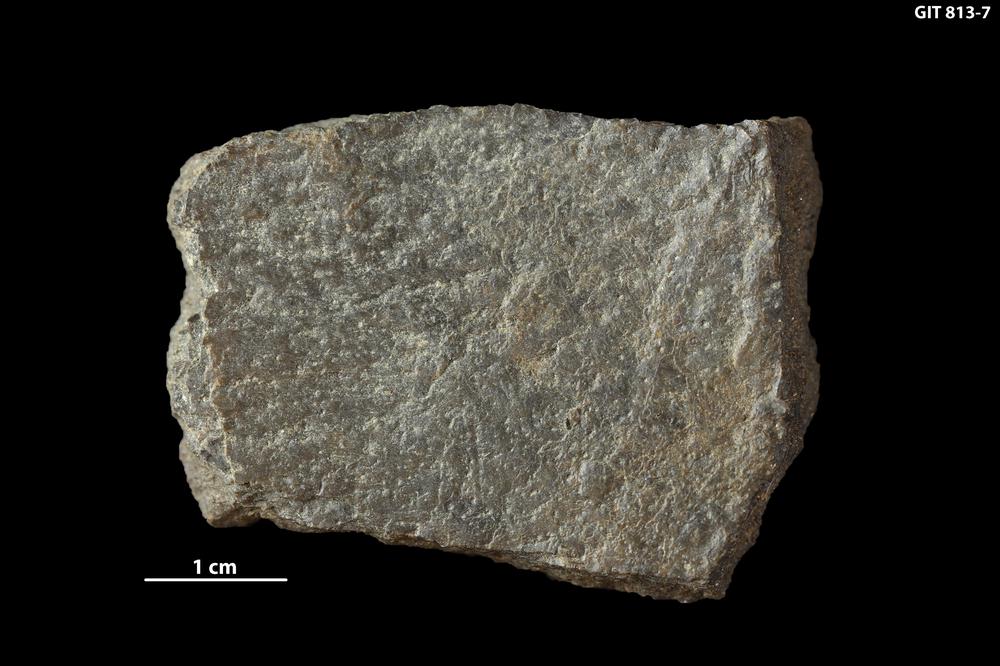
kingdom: Animalia
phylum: Chordata
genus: Schizosteus
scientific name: Schizosteus
